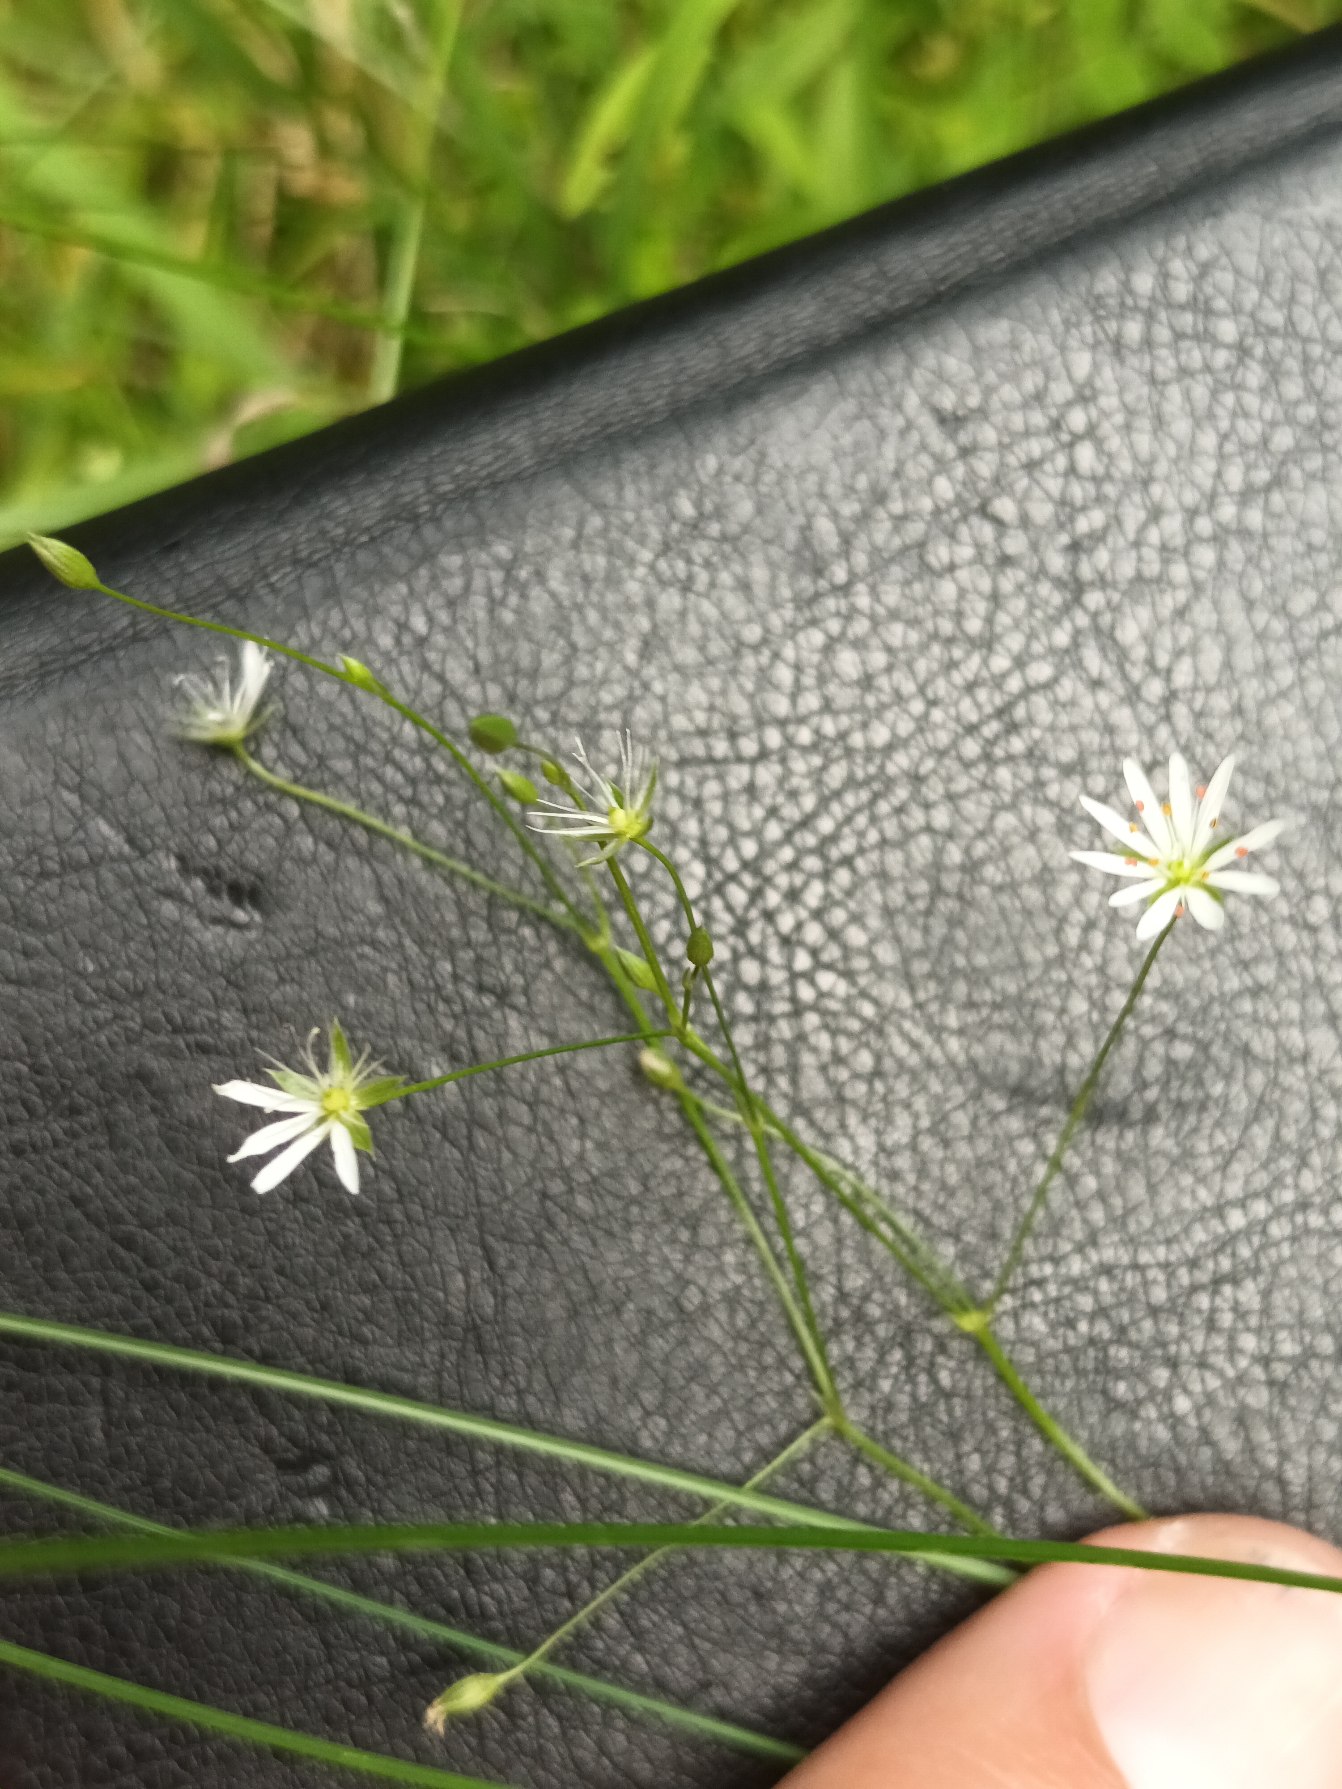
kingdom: Plantae
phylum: Tracheophyta
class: Magnoliopsida
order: Caryophyllales
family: Caryophyllaceae
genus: Stellaria
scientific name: Stellaria graminea
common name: Græsbladet fladstjerne
